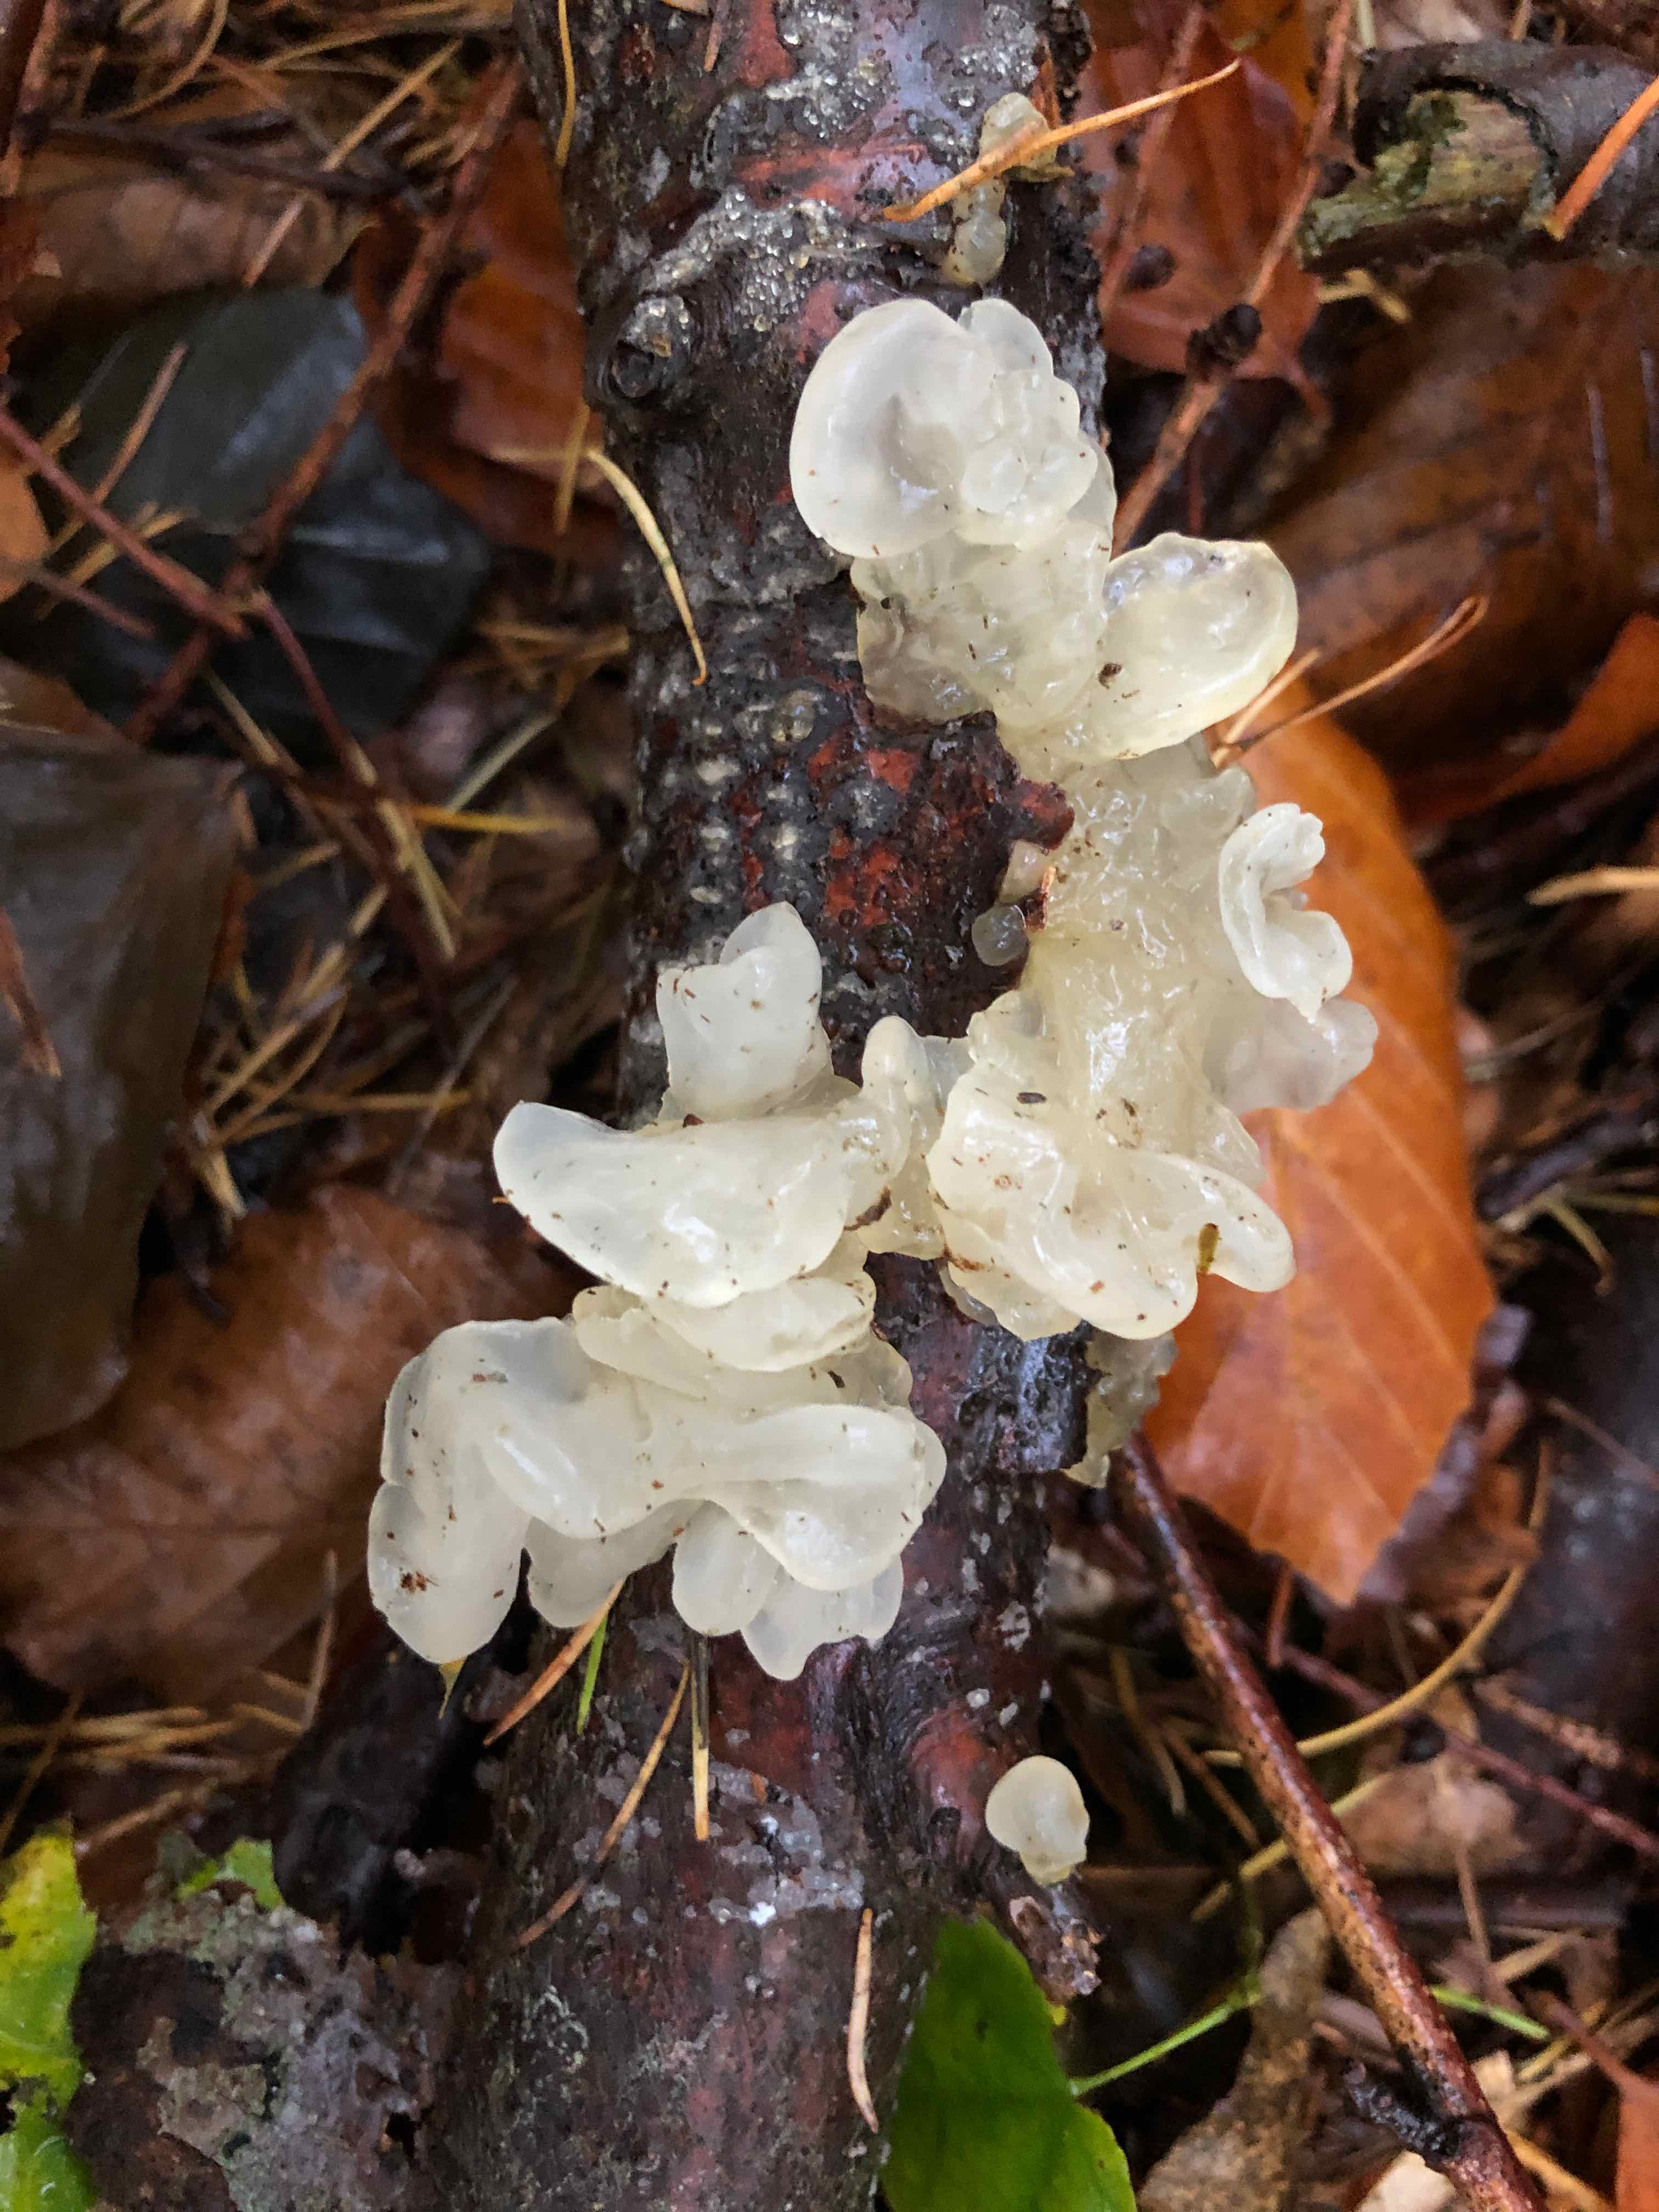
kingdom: Fungi
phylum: Basidiomycota
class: Tremellomycetes
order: Tremellales
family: Tremellaceae
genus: Tremella
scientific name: Tremella mesenterica
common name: gul bævresvamp
